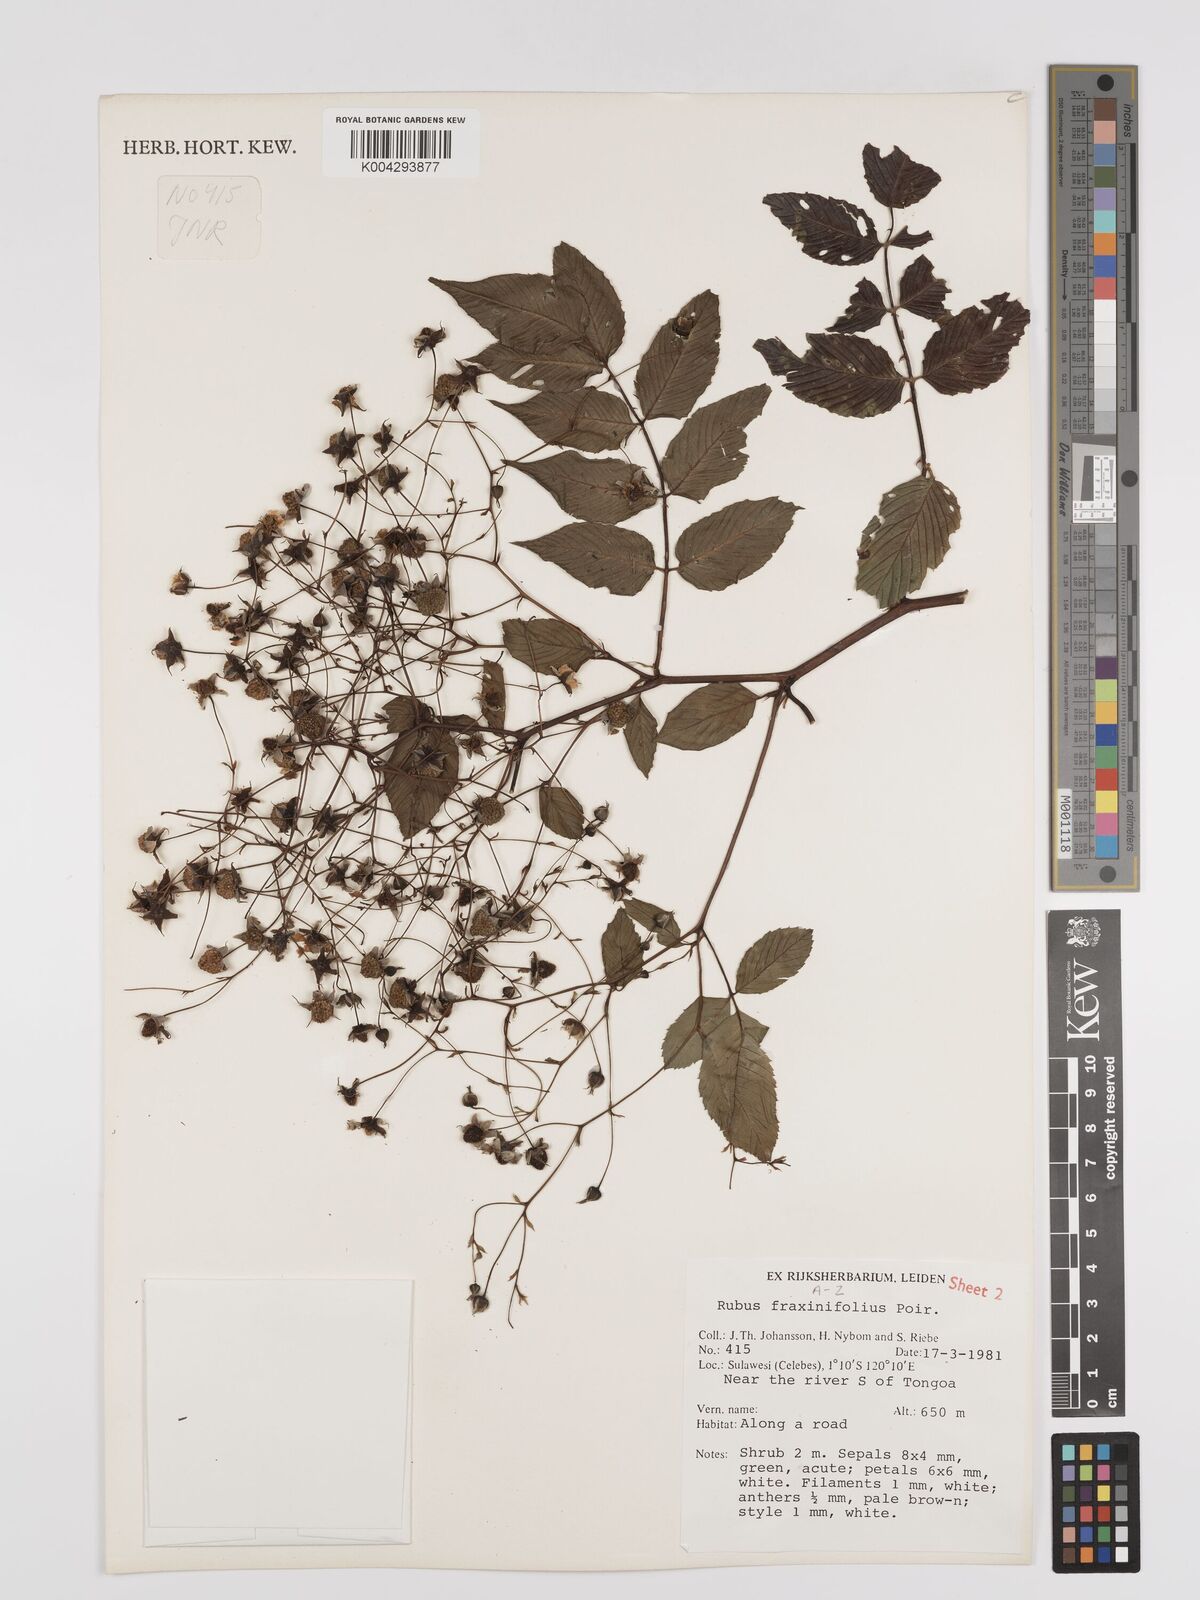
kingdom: Plantae
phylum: Tracheophyta
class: Magnoliopsida
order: Rosales
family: Rosaceae
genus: Rubus
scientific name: Rubus fraxinifolius
